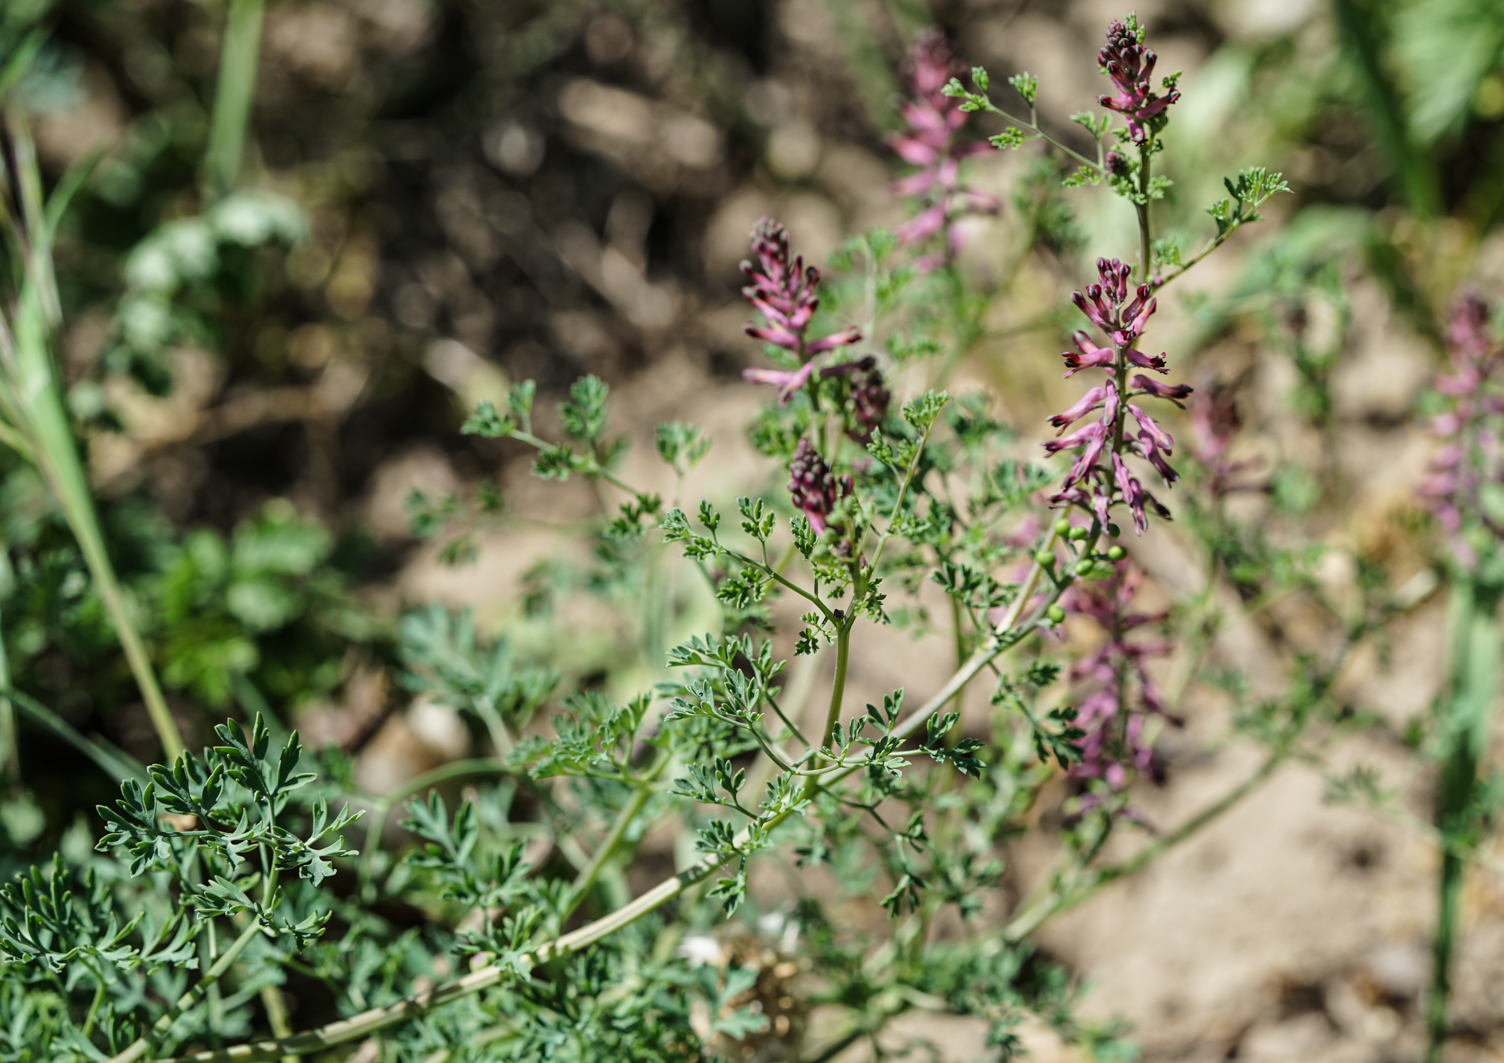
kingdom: Plantae
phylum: Tracheophyta
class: Magnoliopsida
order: Ranunculales
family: Papaveraceae
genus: Fumaria
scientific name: Fumaria officinalis
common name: Common fumitory
